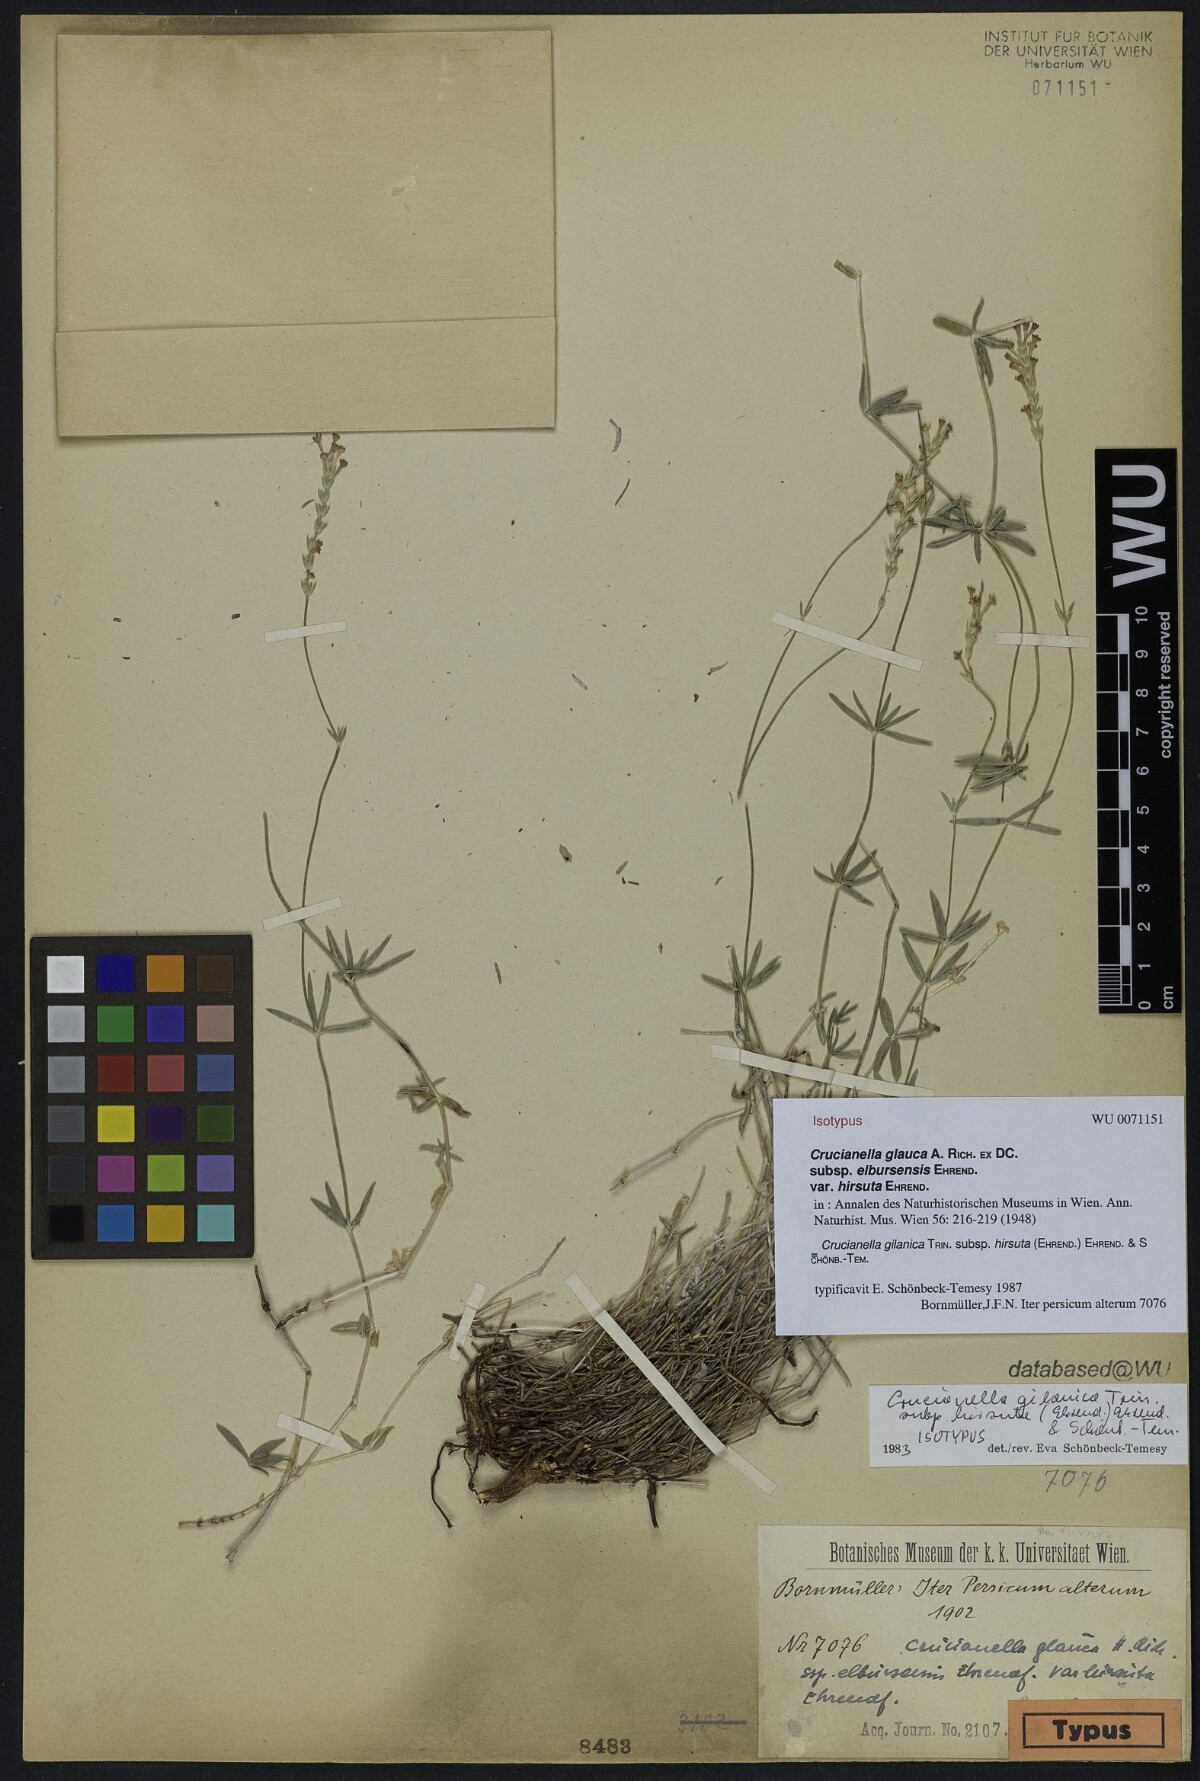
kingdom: Plantae
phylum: Tracheophyta
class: Magnoliopsida
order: Gentianales
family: Rubiaceae
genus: Crucianella
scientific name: Crucianella gilanica
